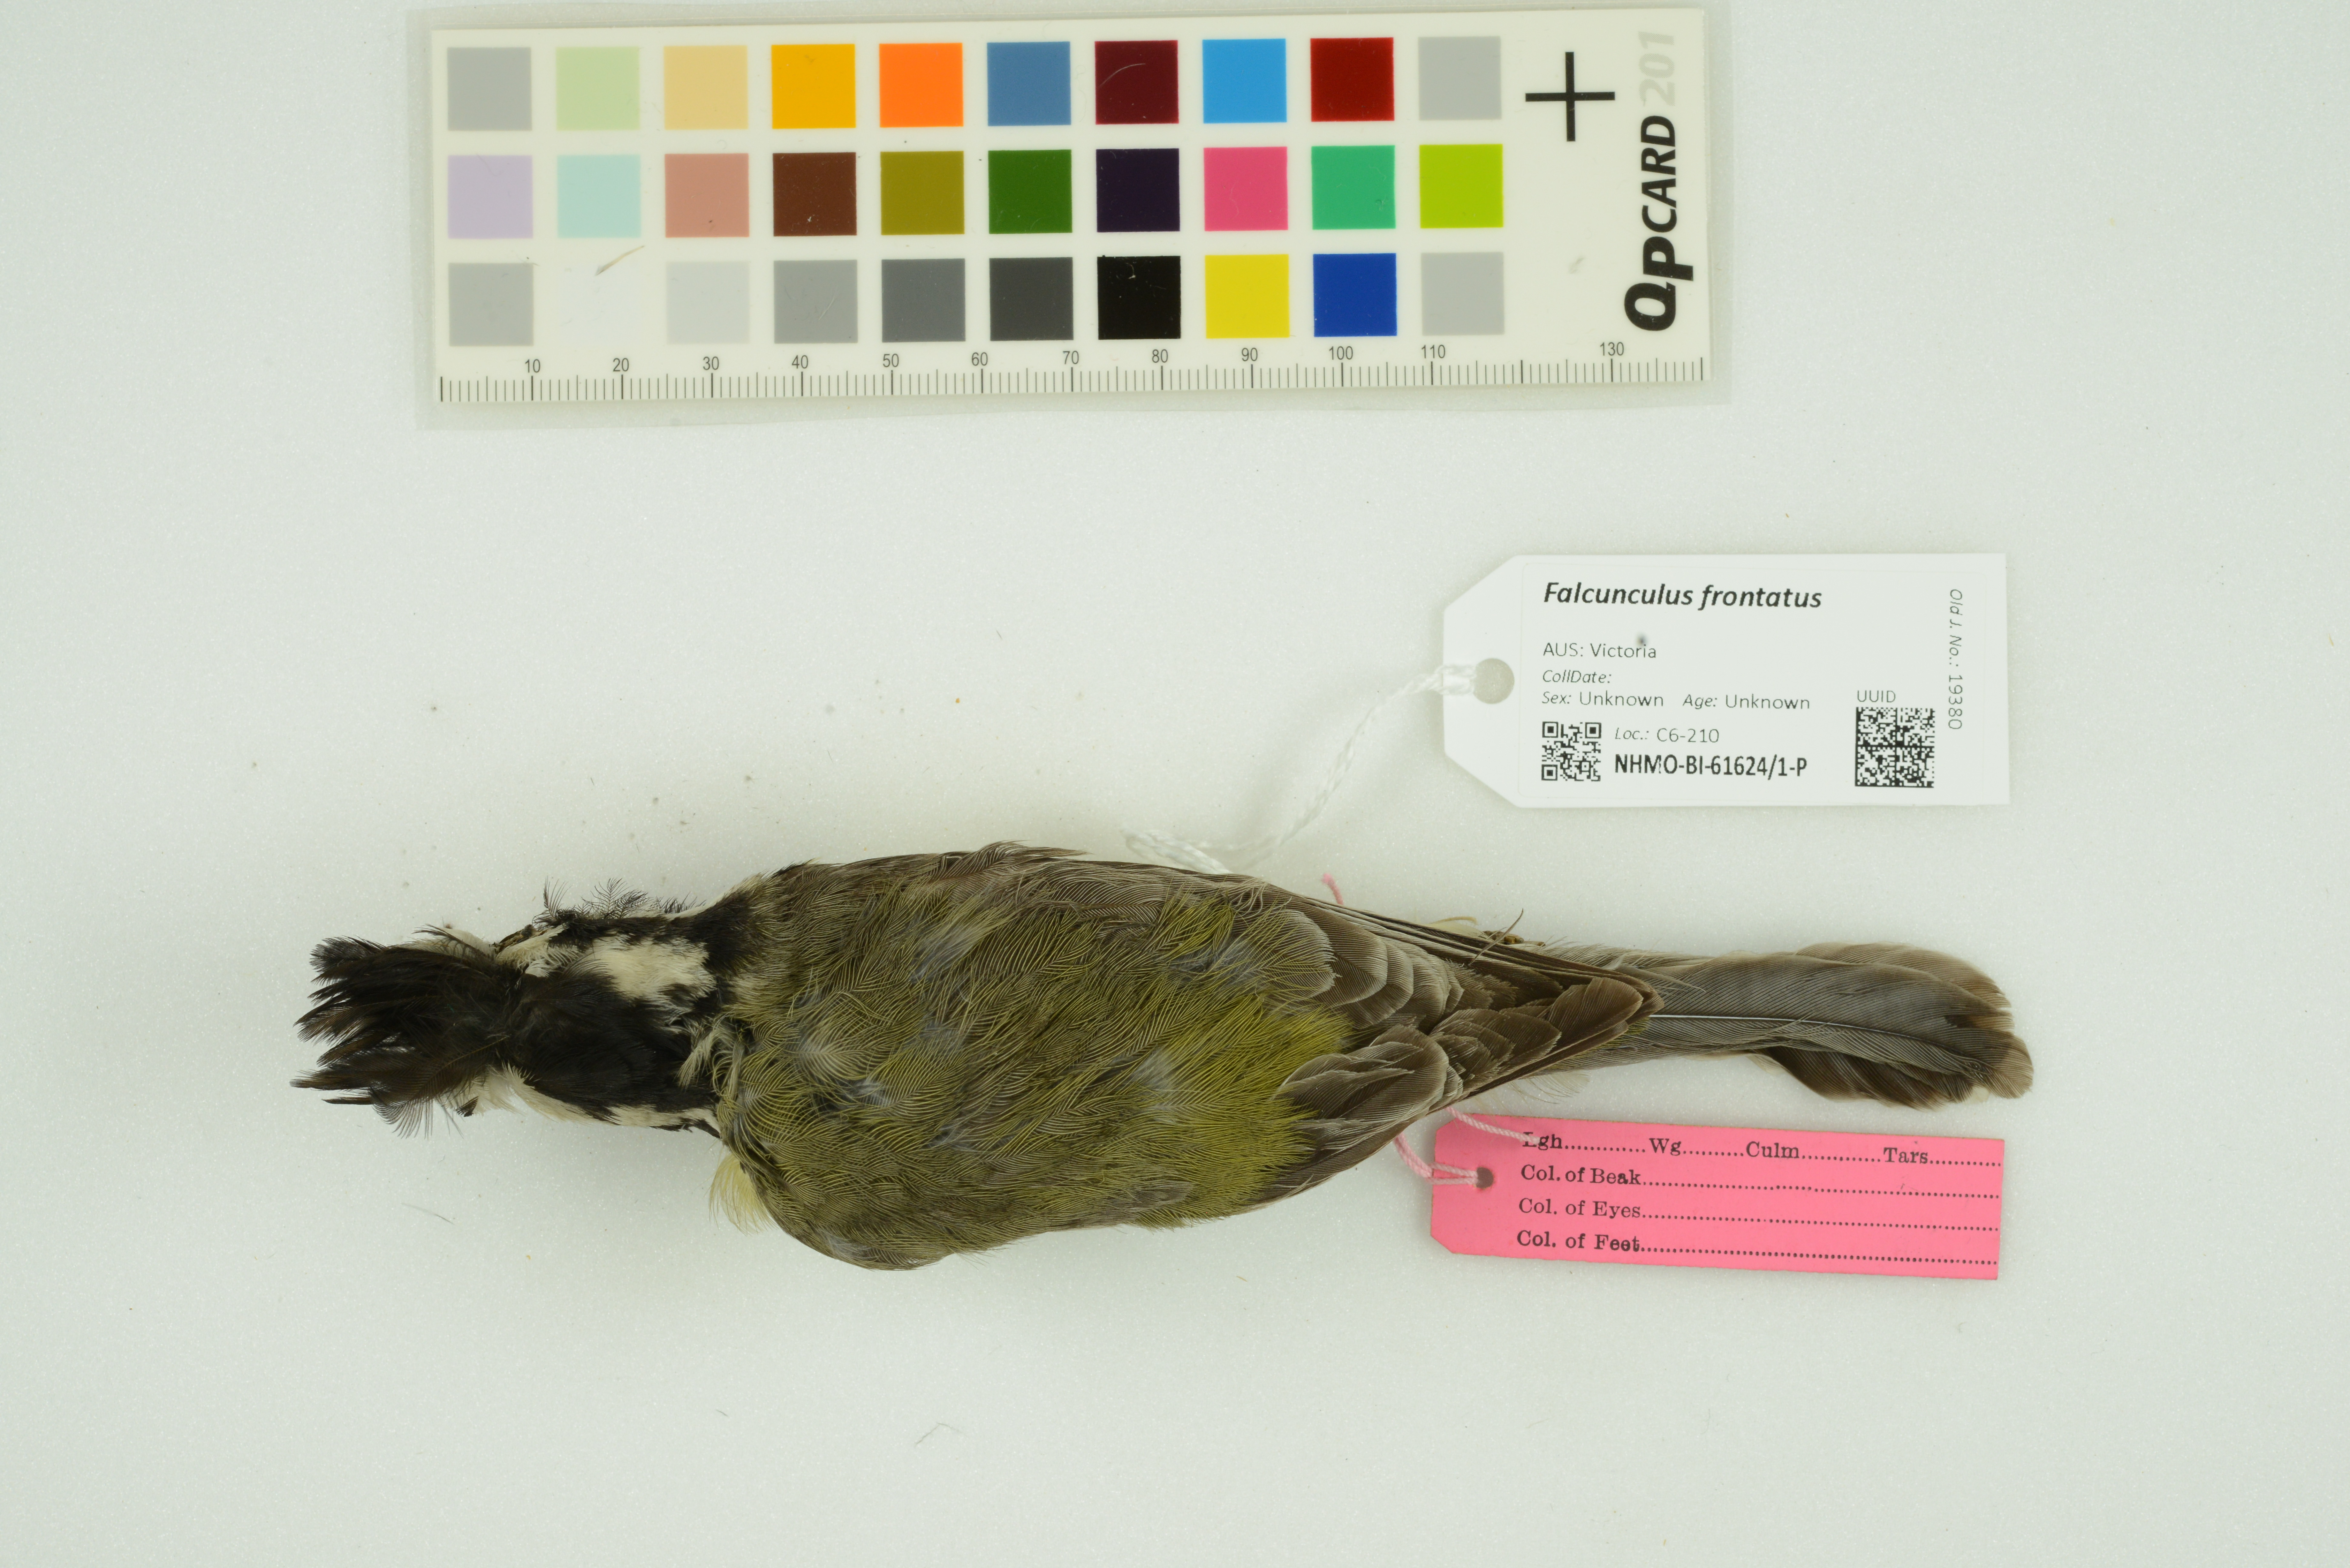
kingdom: Animalia
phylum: Chordata
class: Aves
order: Passeriformes
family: Pachycephalidae
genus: Falcunculus
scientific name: Falcunculus frontatus
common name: Crested shriketit
